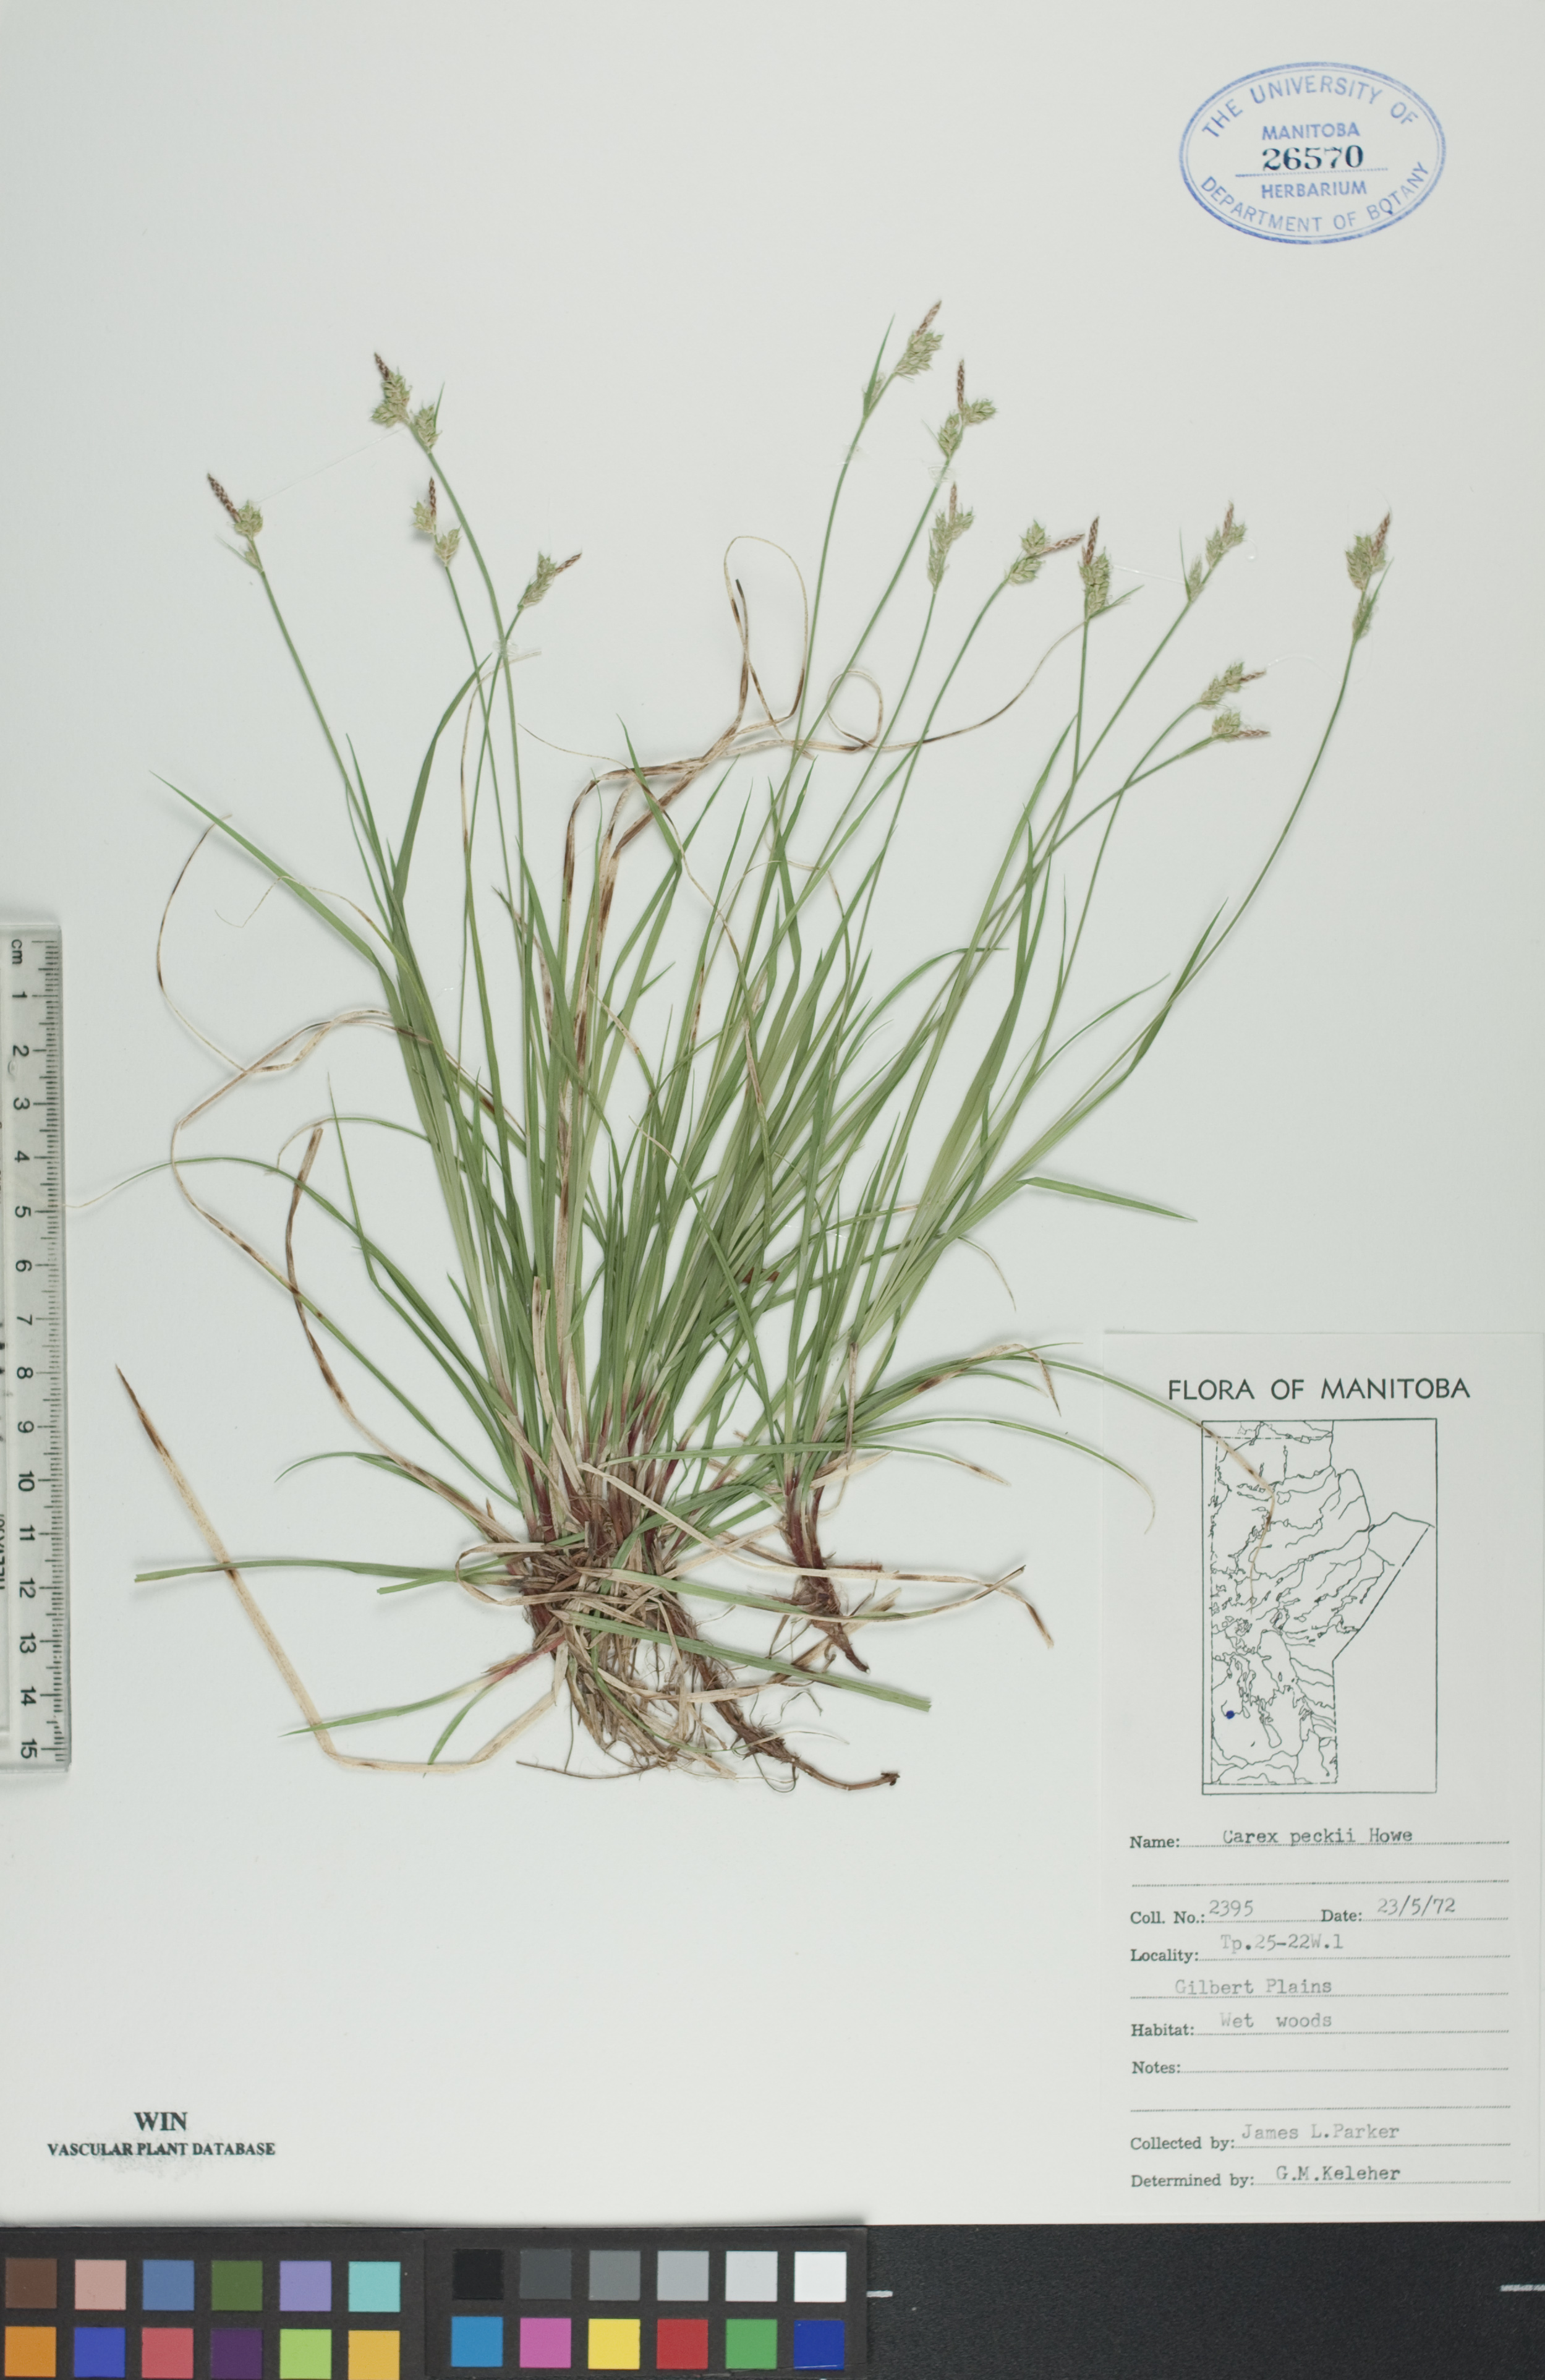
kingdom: Plantae
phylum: Tracheophyta
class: Liliopsida
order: Poales
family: Cyperaceae
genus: Carex
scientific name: Carex peckii
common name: Peck's oak sedge
